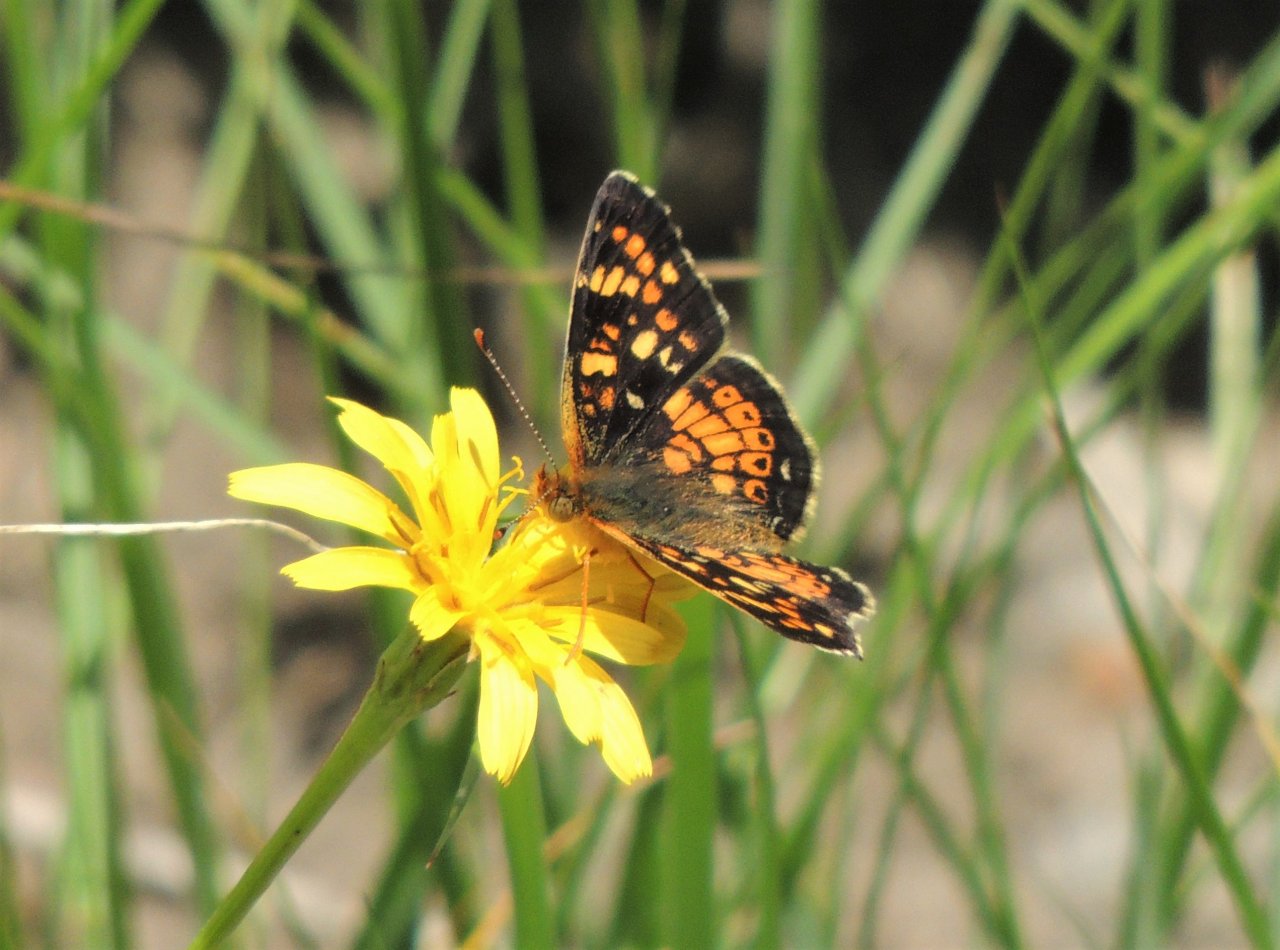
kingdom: Animalia
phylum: Arthropoda
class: Insecta
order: Lepidoptera
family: Nymphalidae
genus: Phyciodes
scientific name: Phyciodes tharos
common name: Field Crescent
